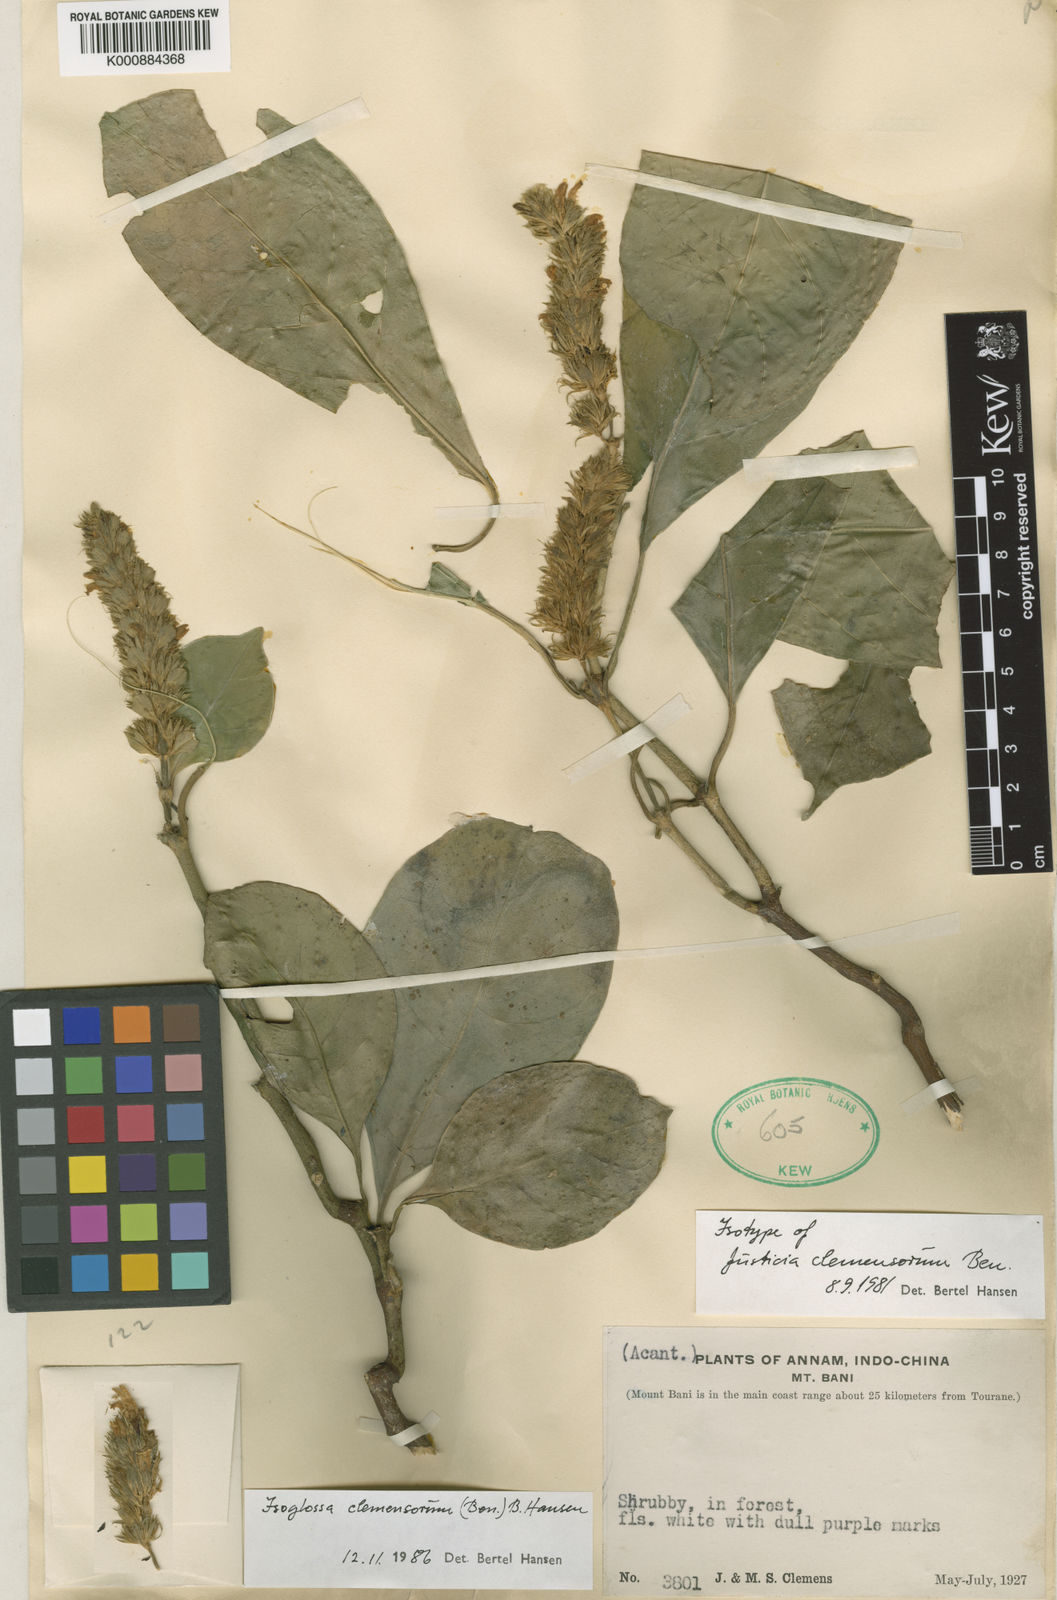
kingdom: Plantae
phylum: Tracheophyta
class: Magnoliopsida
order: Lamiales
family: Acanthaceae
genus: Isoglossa
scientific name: Isoglossa collina
